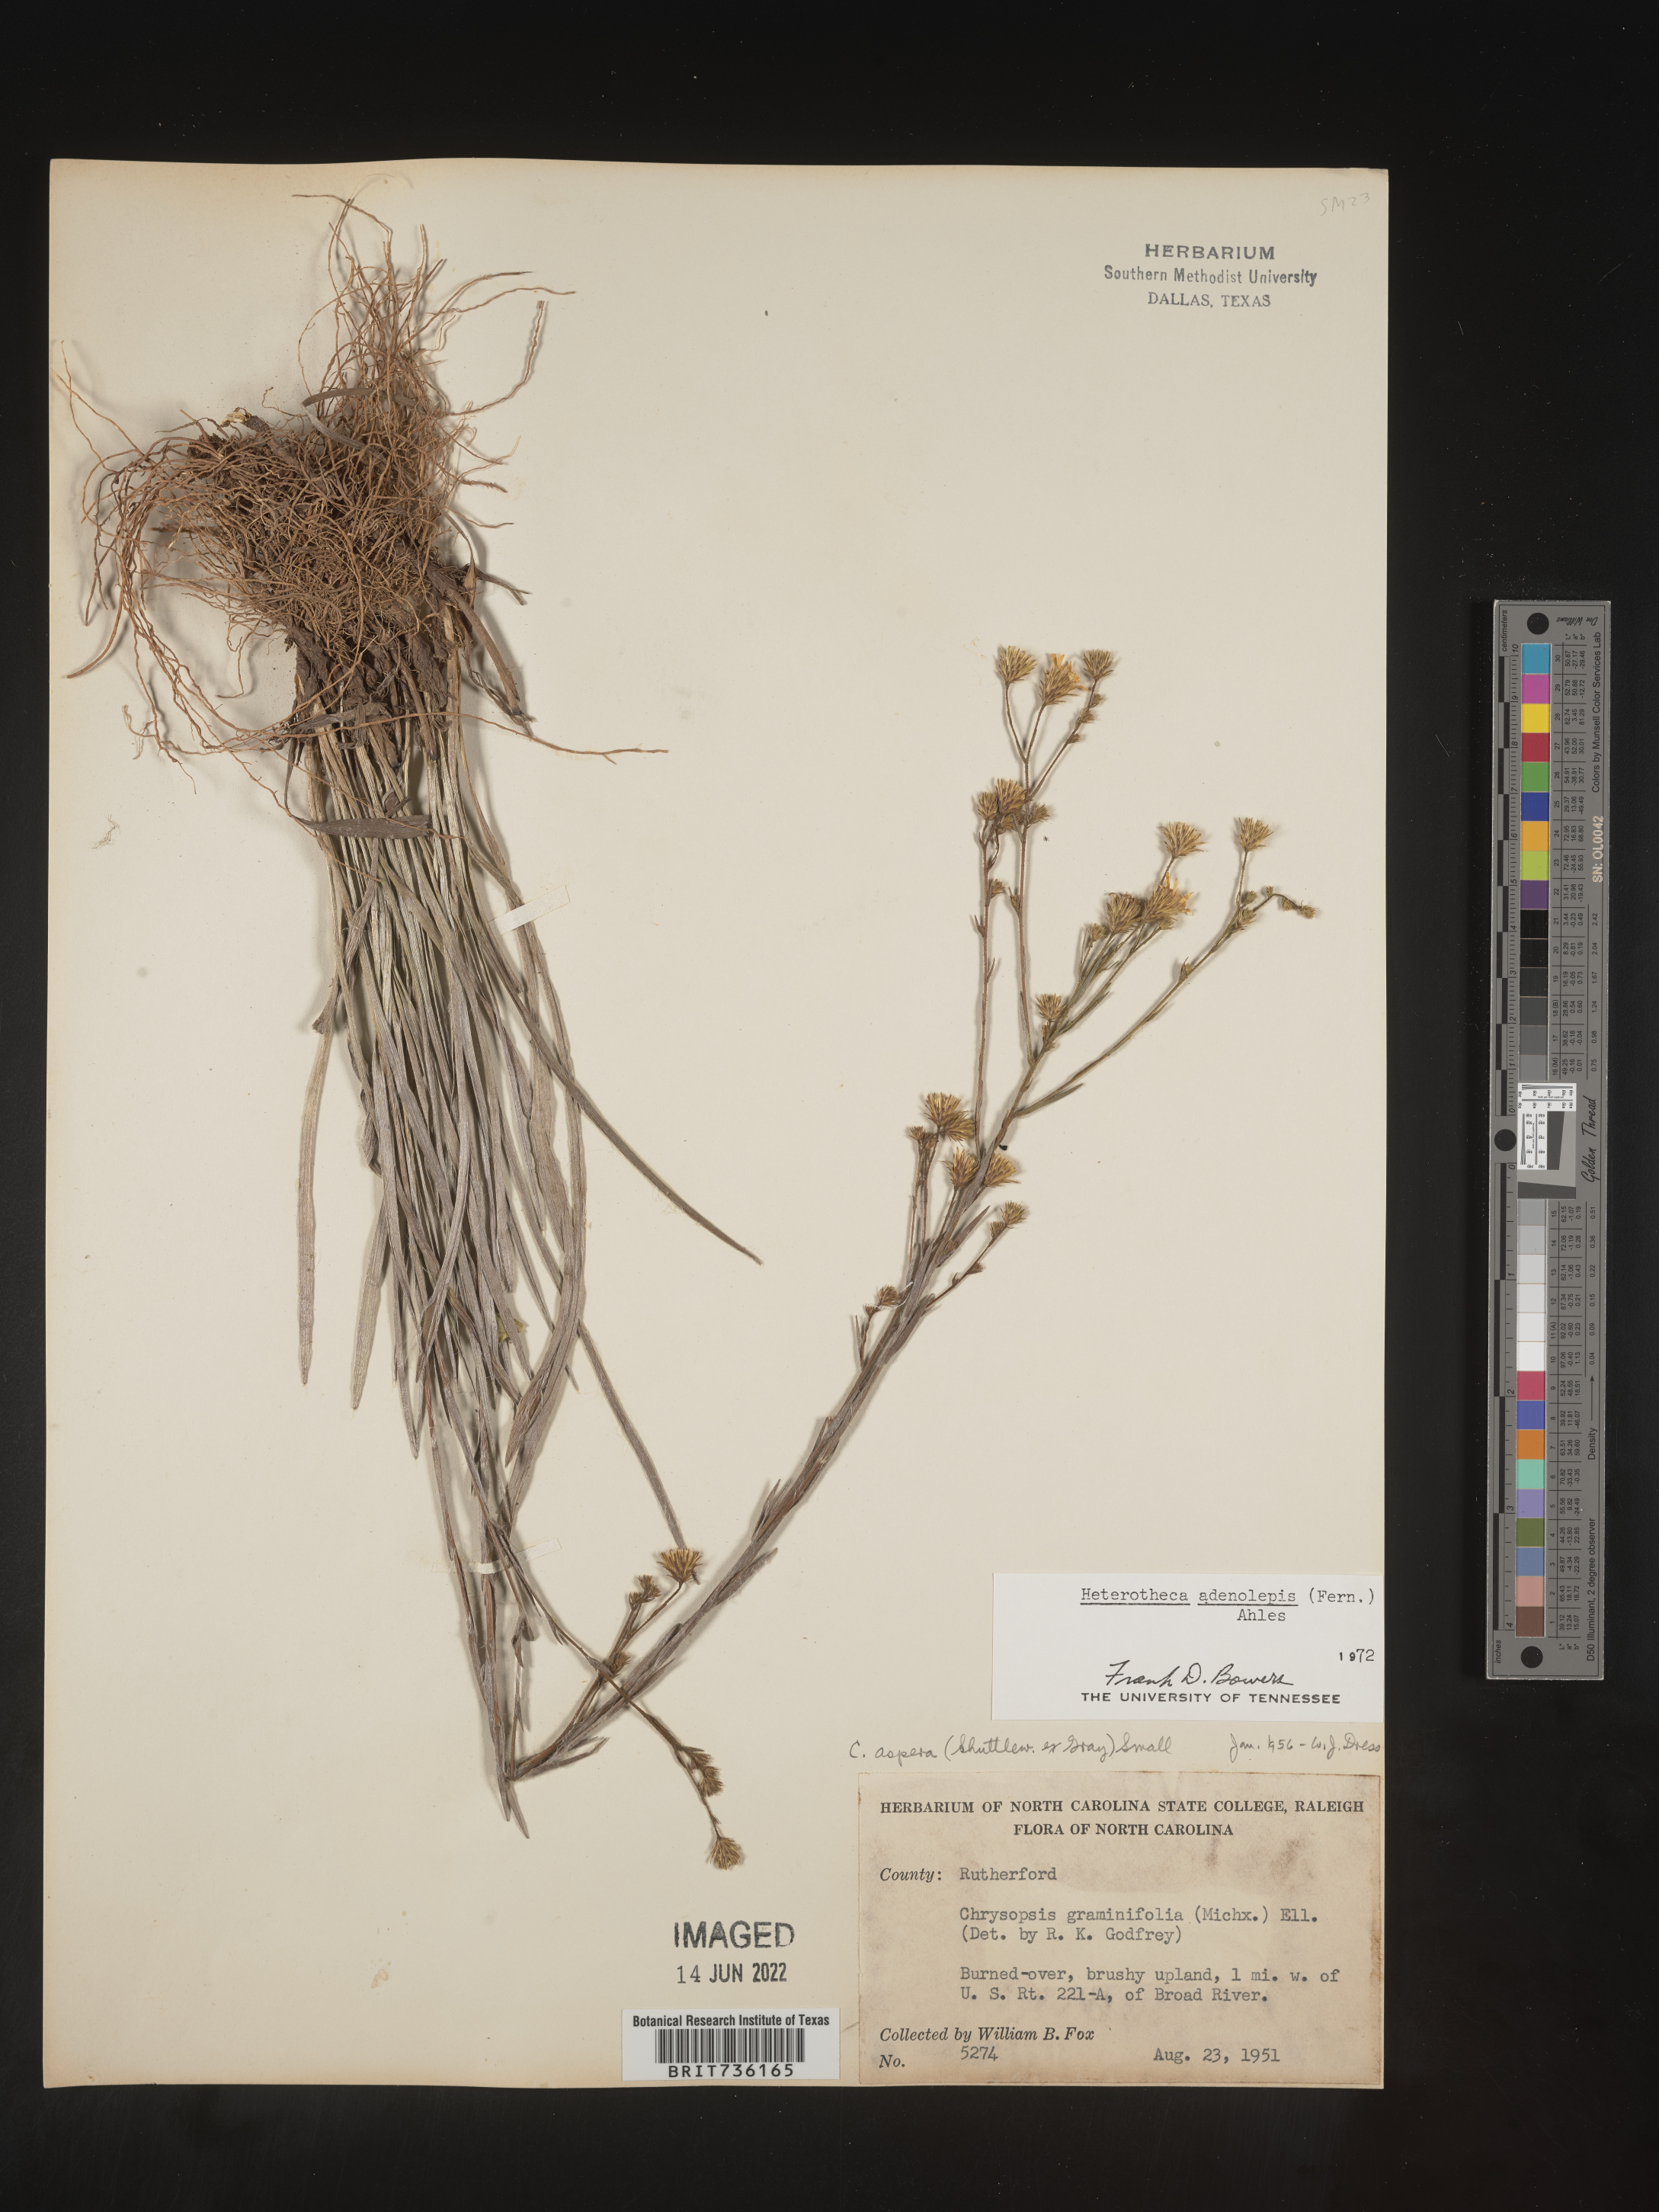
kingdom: Plantae
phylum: Tracheophyta
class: Magnoliopsida
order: Asterales
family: Asteraceae
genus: Pityopsis
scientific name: Pityopsis aspera
